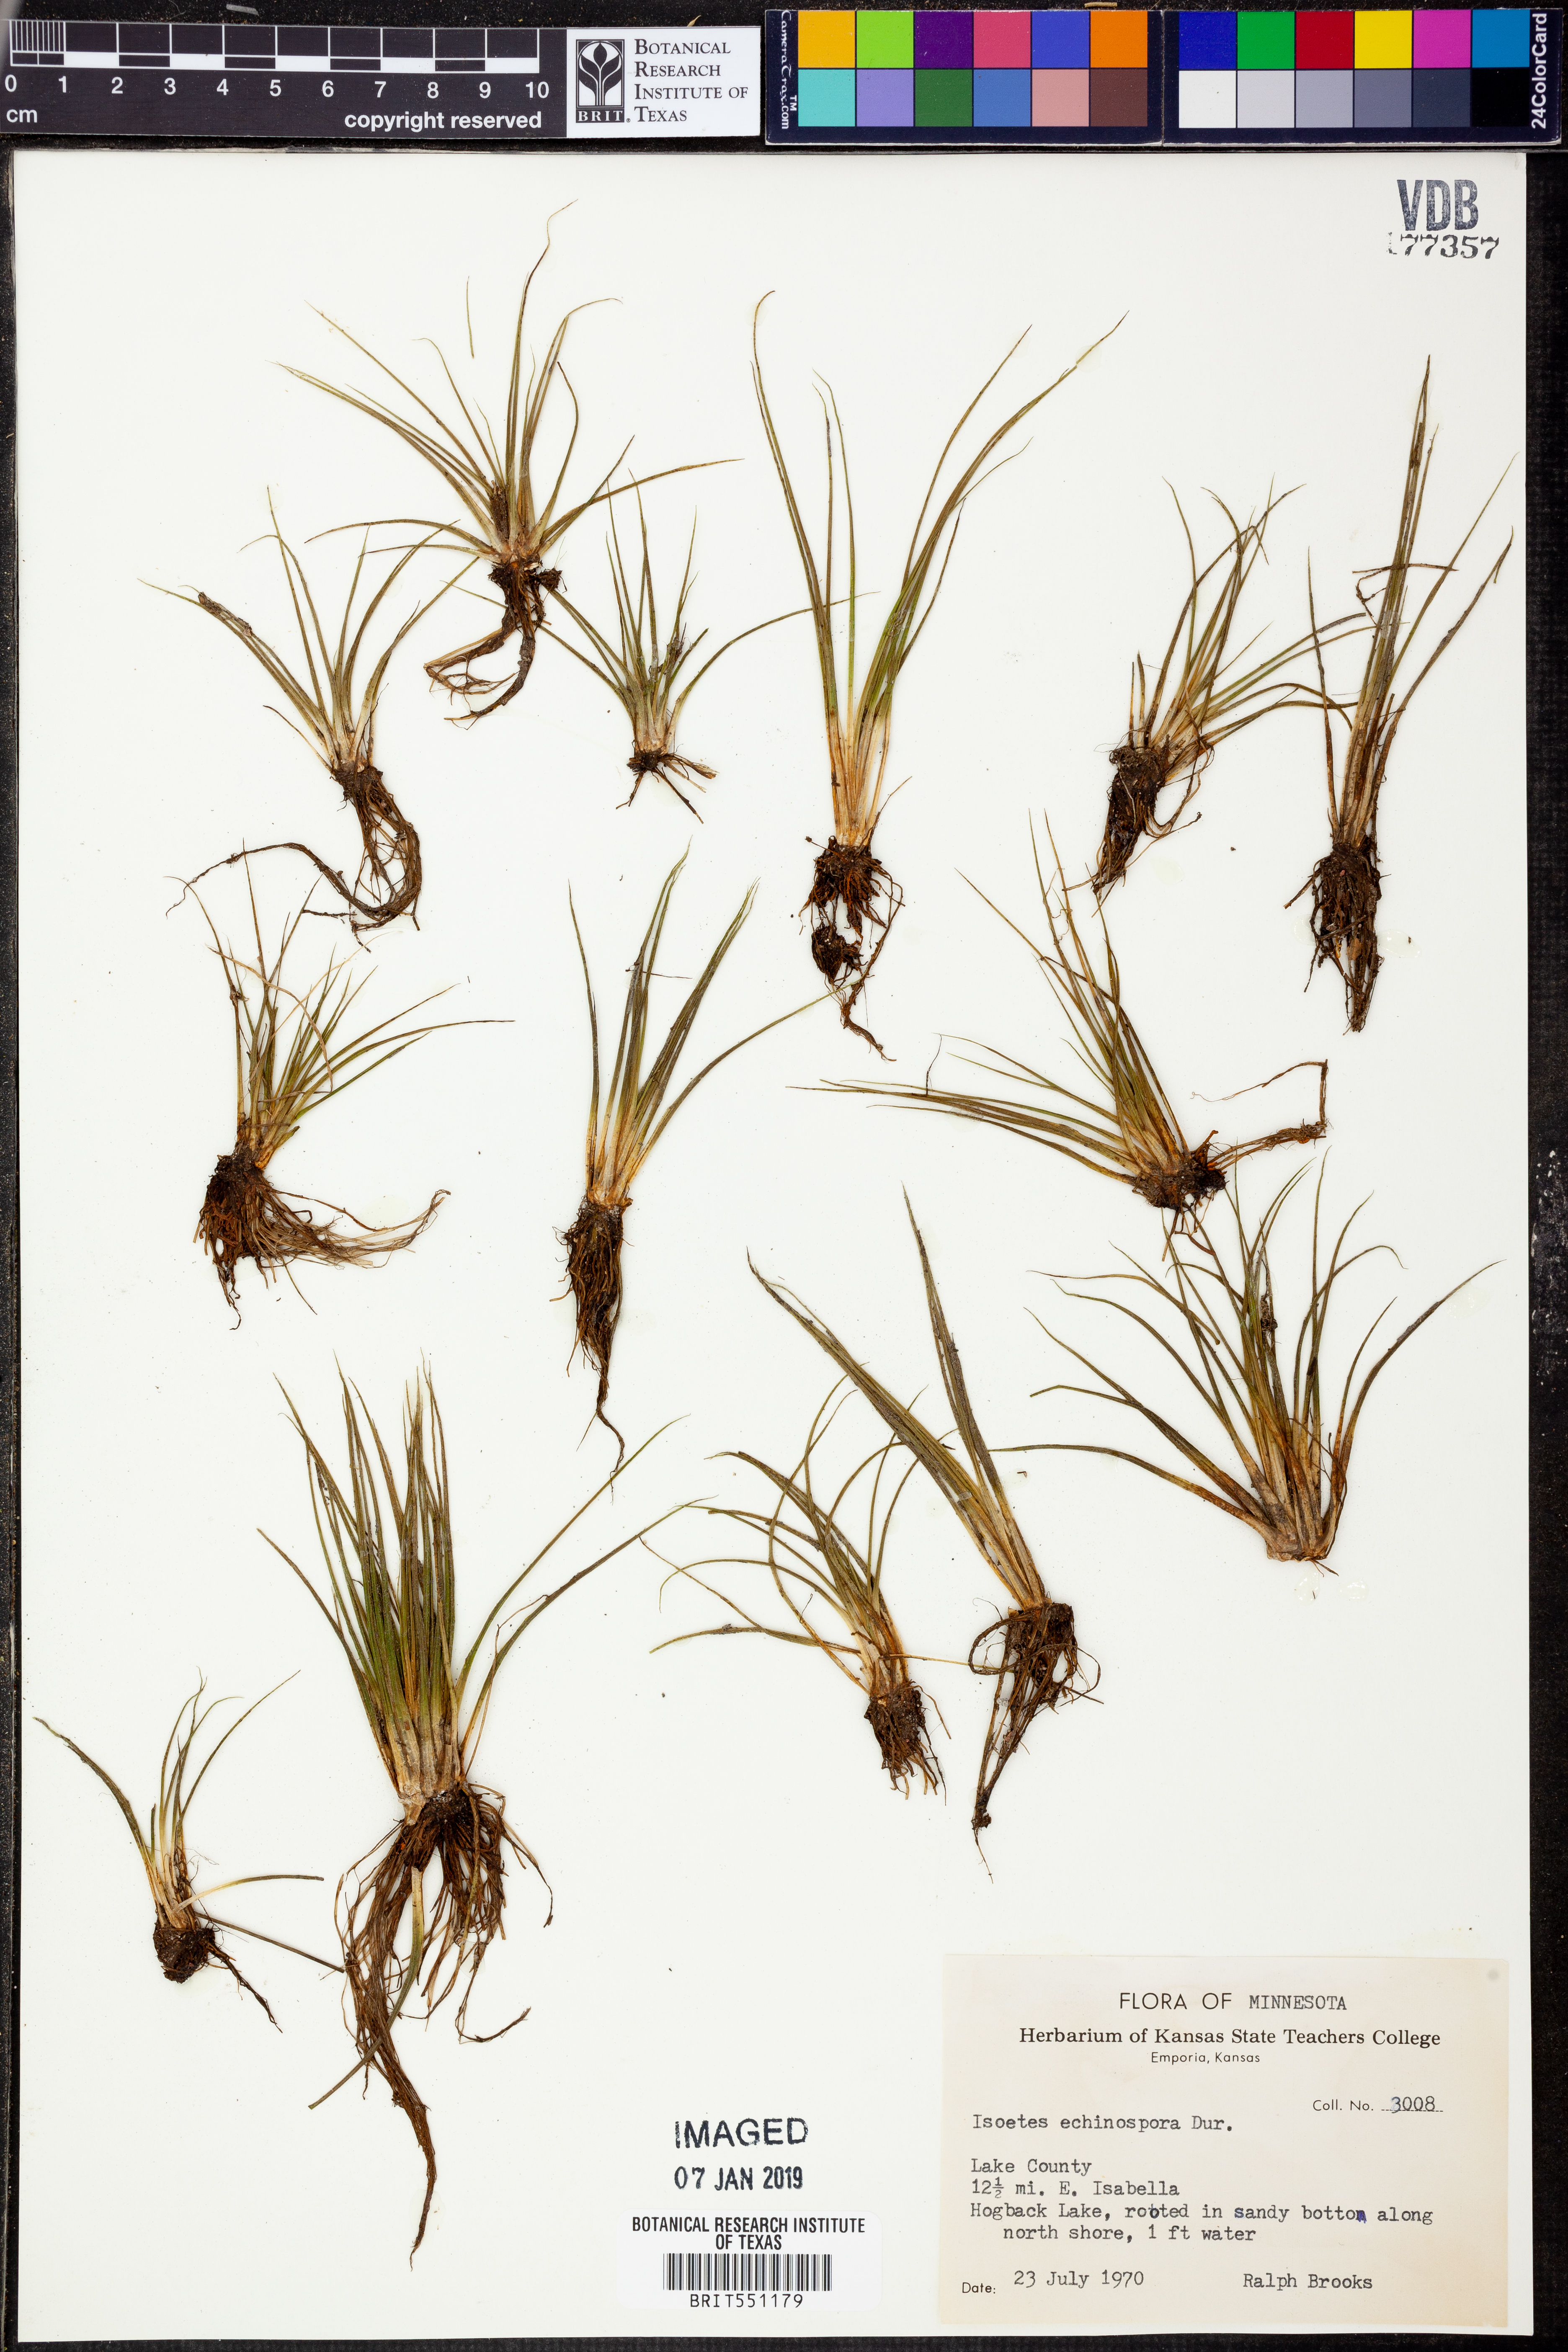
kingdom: Plantae
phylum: Tracheophyta
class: Lycopodiopsida
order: Isoetales
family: Isoetaceae
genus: Isoetes
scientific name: Isoetes echinospora
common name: Spring quillwort
